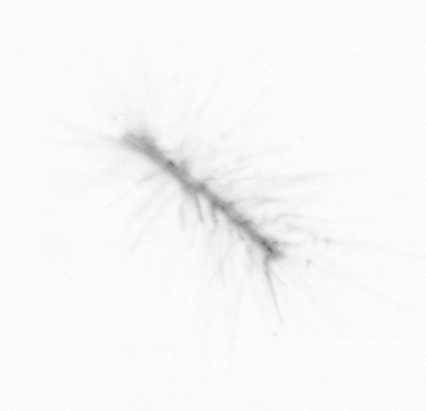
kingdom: Chromista
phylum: Ochrophyta
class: Bacillariophyceae
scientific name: Bacillariophyceae
